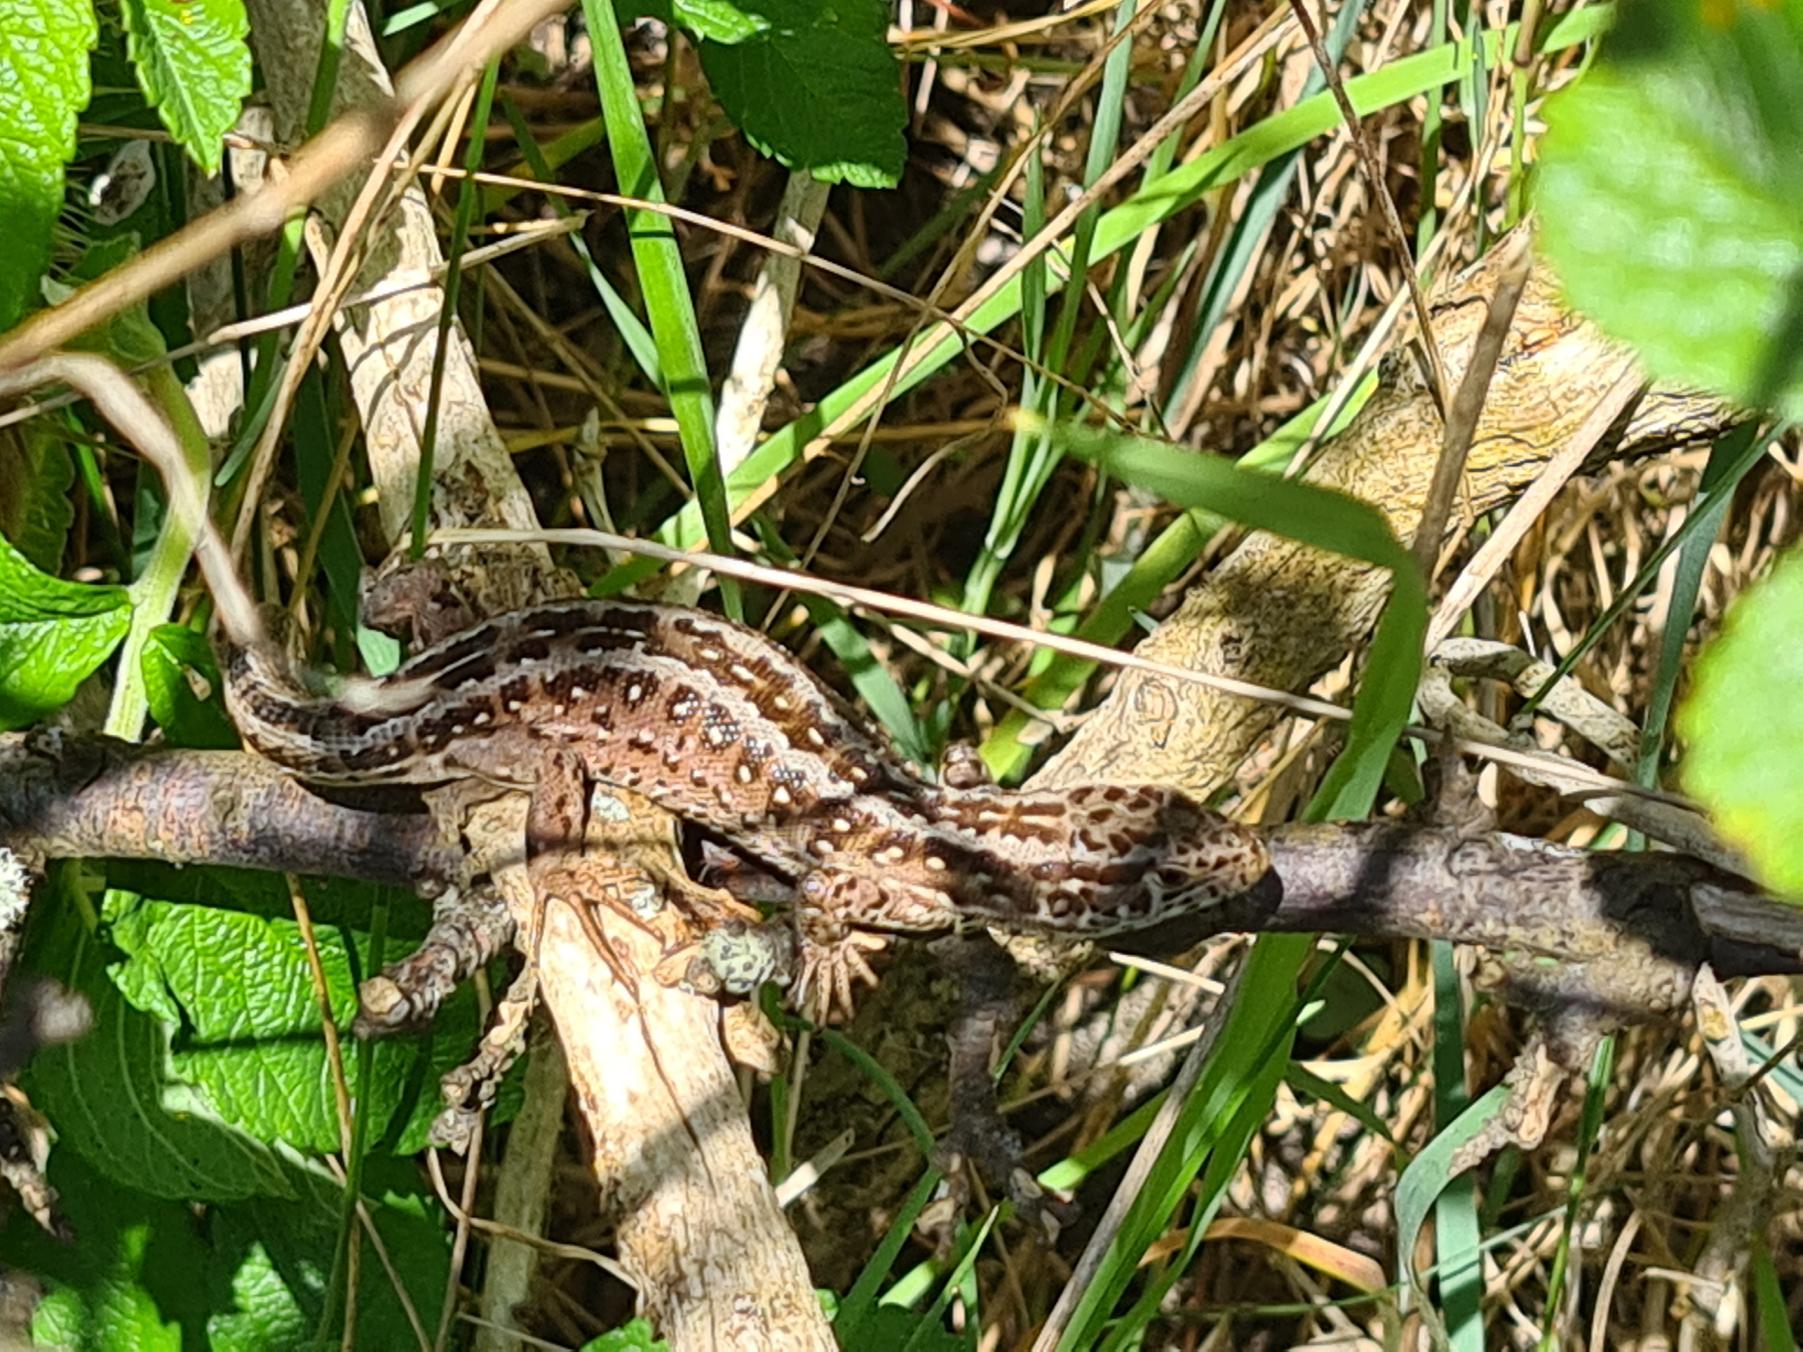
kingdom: Animalia
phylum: Chordata
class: Squamata
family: Lacertidae
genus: Lacerta
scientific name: Lacerta agilis
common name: Markfirben
